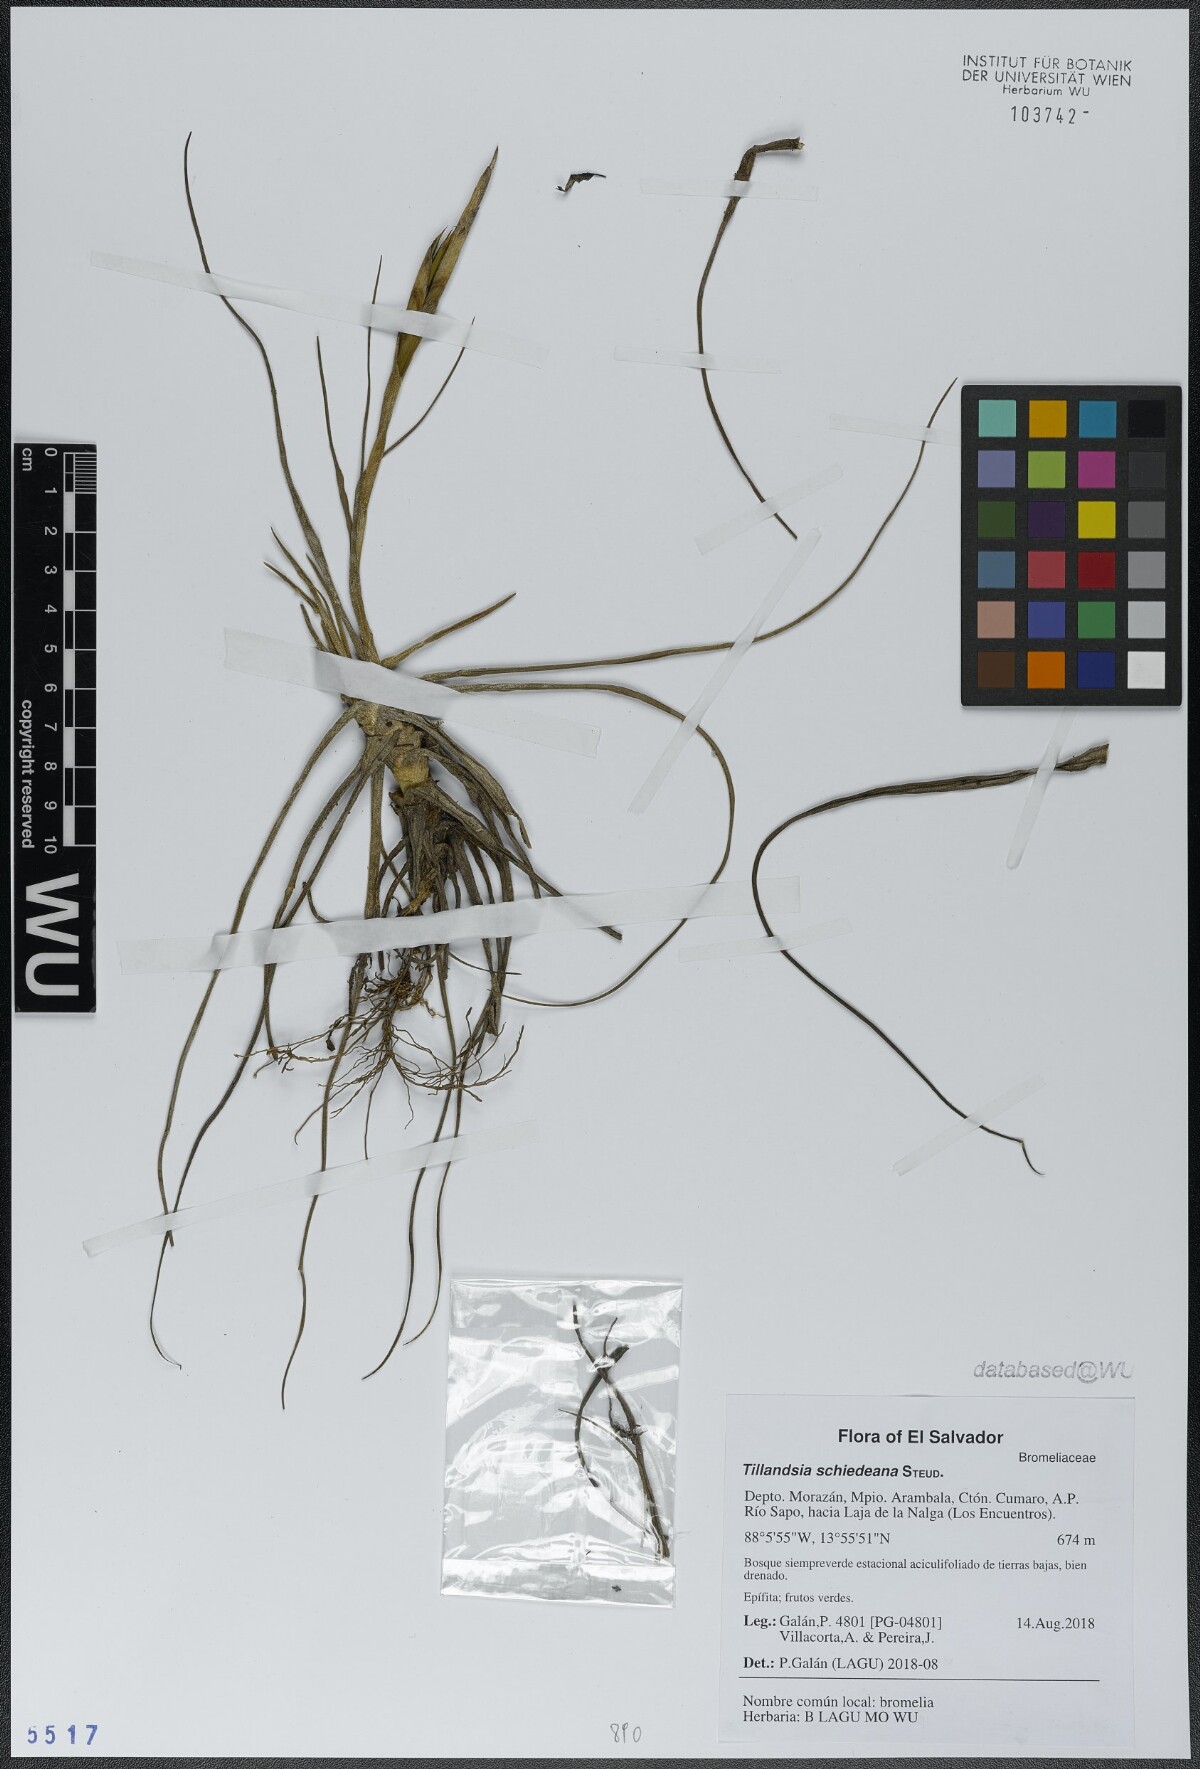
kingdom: Plantae
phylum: Tracheophyta
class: Liliopsida
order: Poales
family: Bromeliaceae
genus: Tillandsia
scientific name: Tillandsia schiedeana
